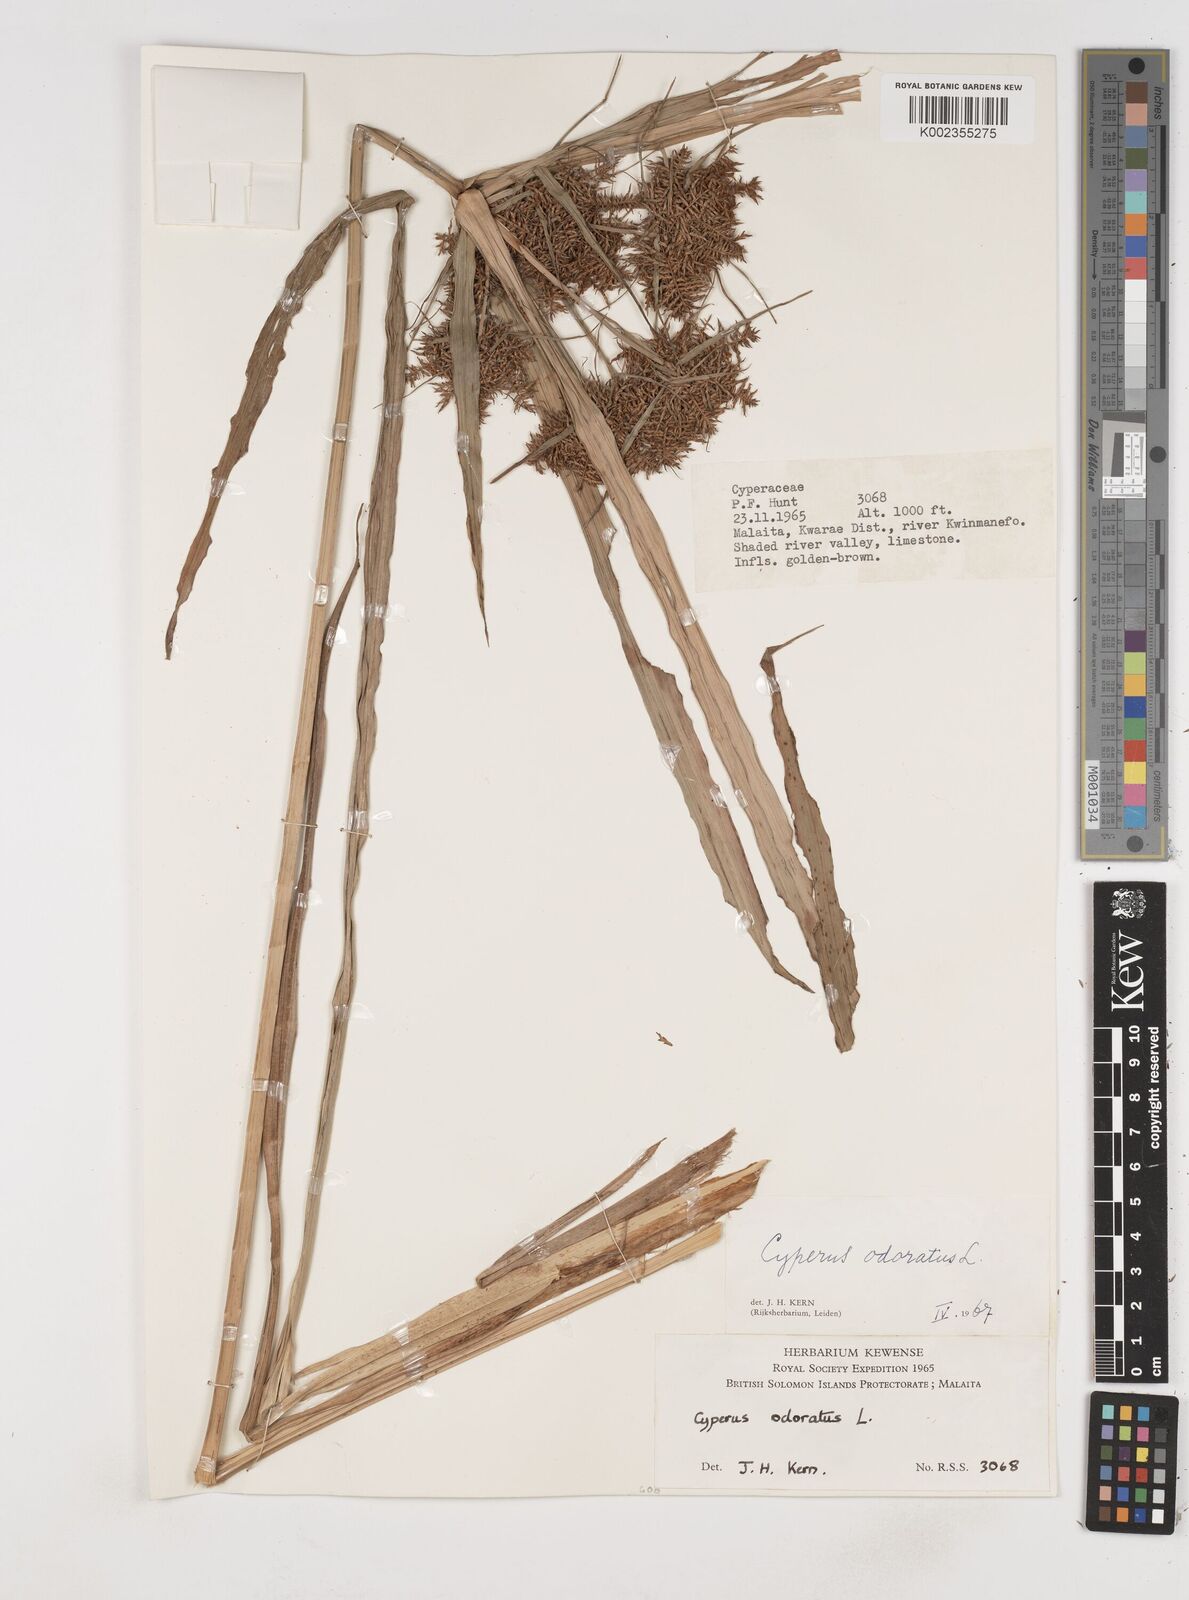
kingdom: Plantae
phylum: Tracheophyta
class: Liliopsida
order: Poales
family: Cyperaceae
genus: Cyperus
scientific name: Cyperus odoratus
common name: Fragrant flatsedge
